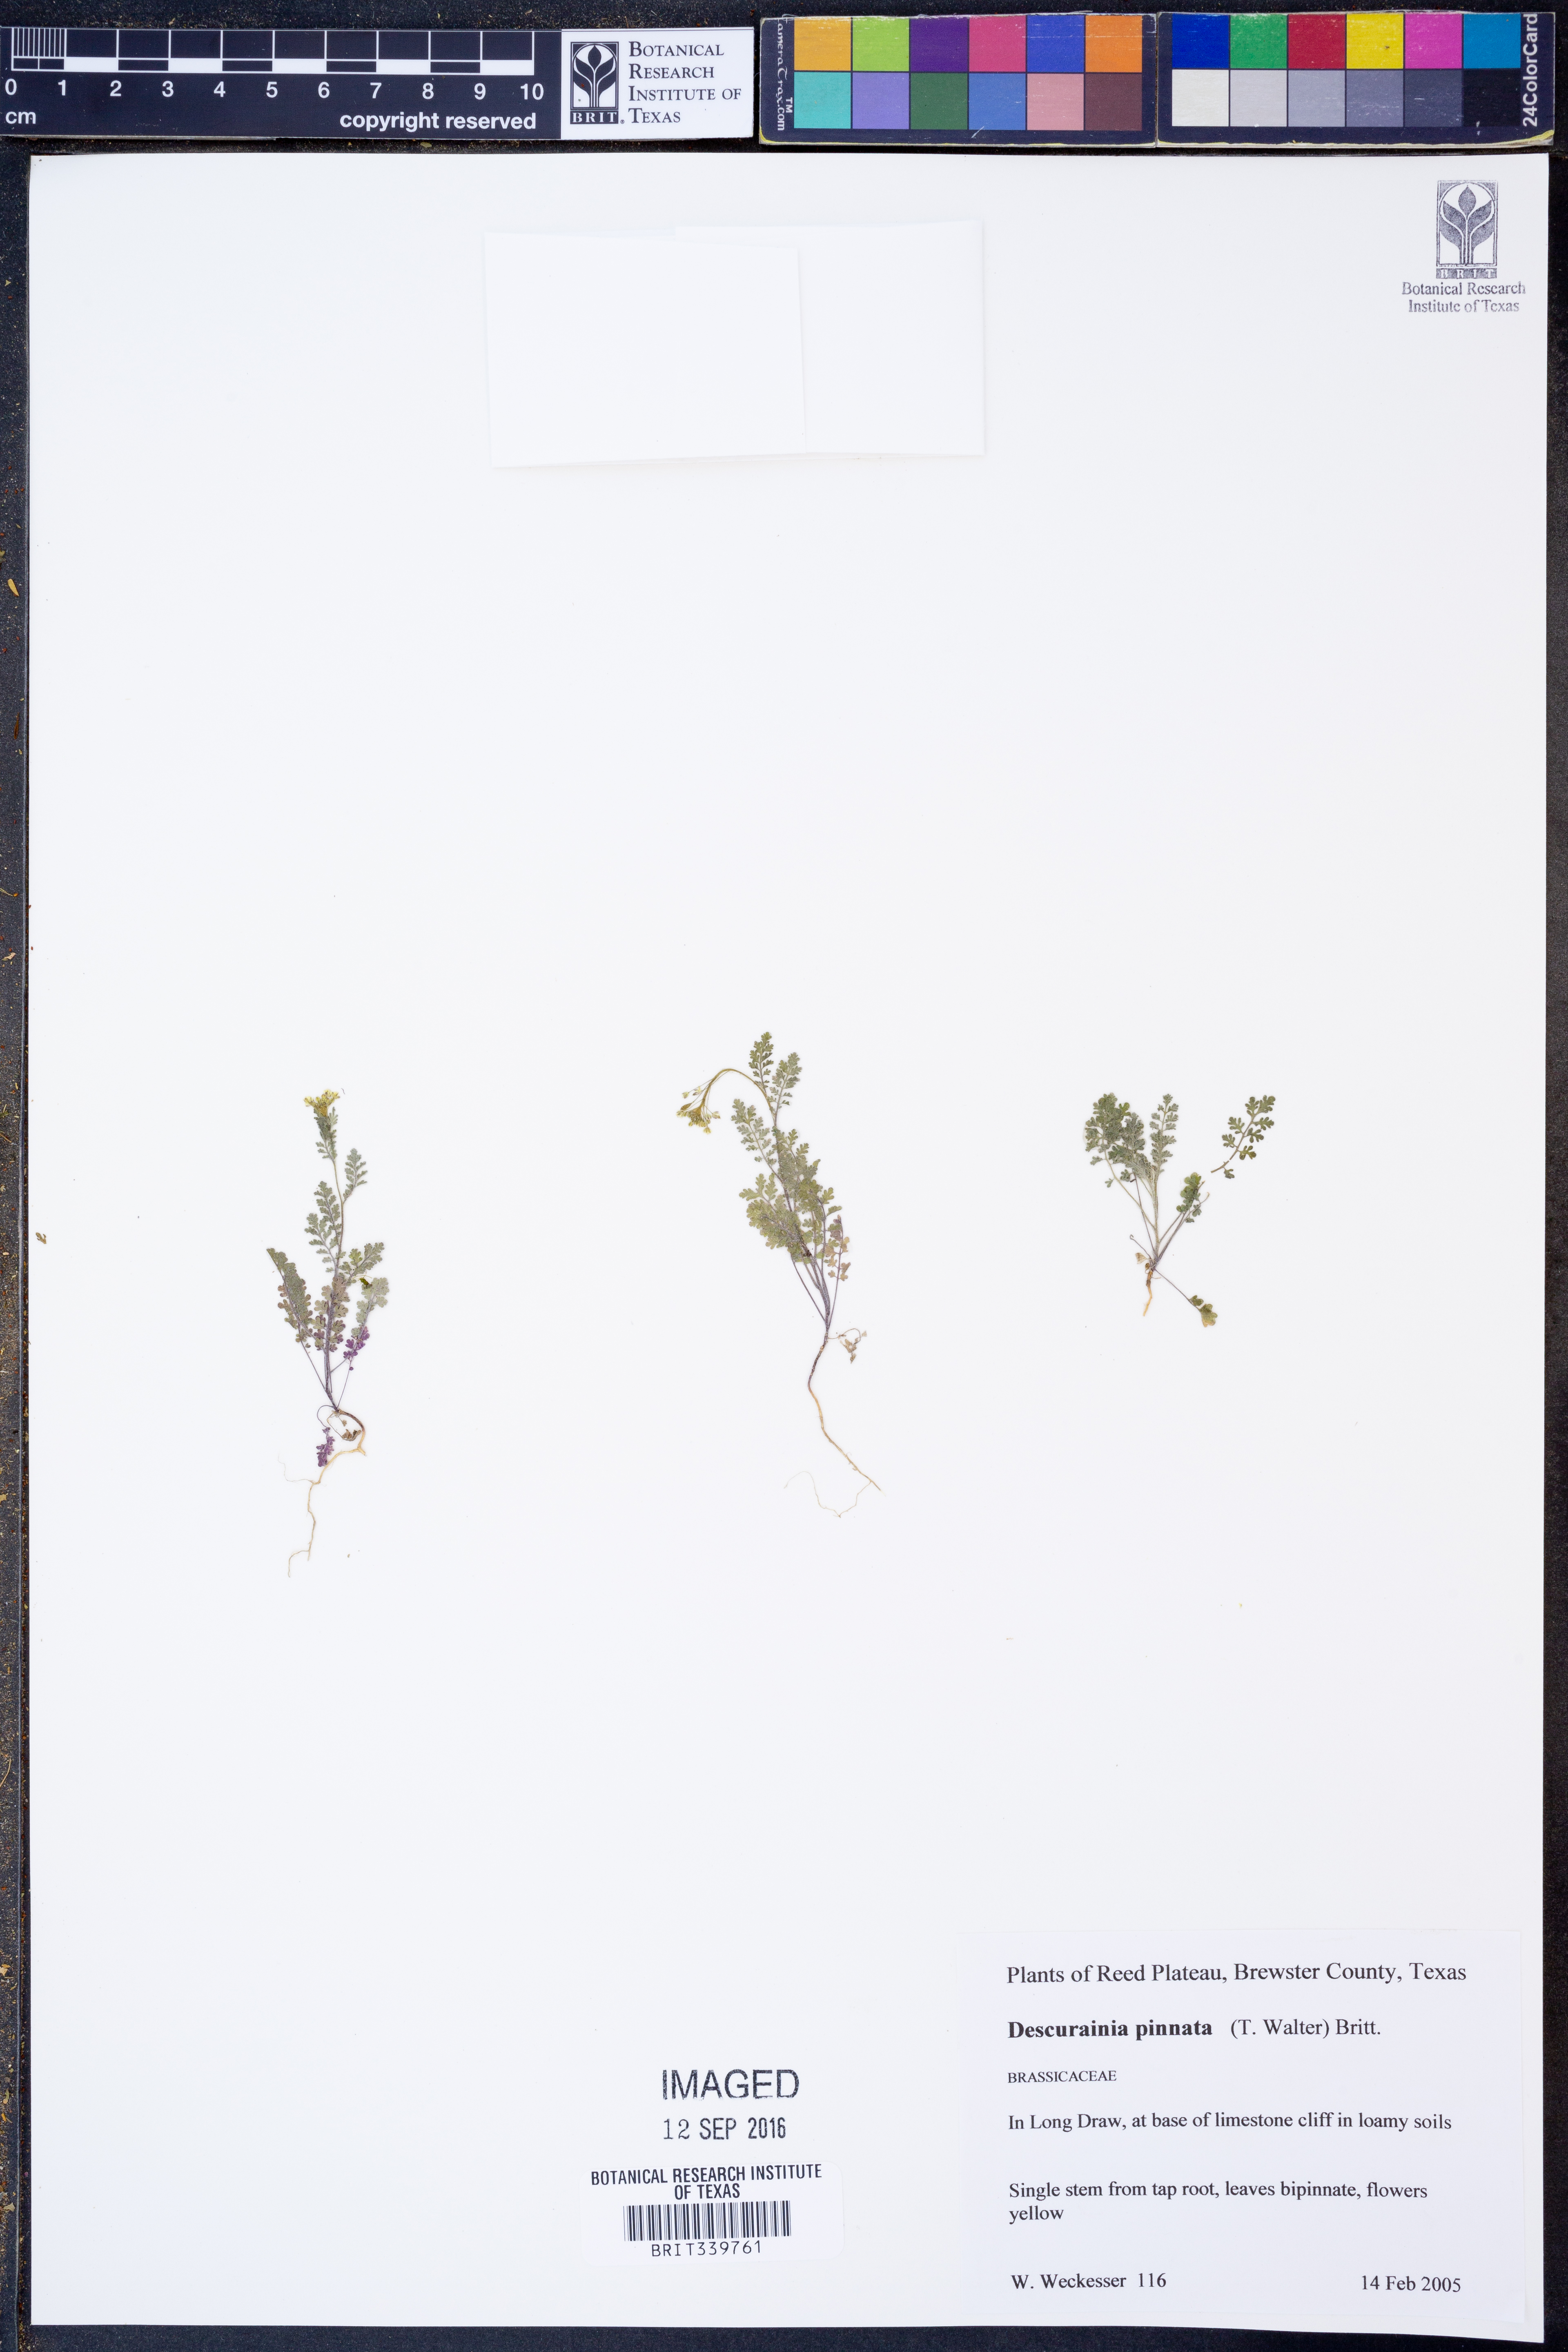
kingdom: Plantae
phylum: Tracheophyta
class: Magnoliopsida
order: Brassicales
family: Brassicaceae
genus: Descurainia
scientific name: Descurainia pinnata
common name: Western tansy mustard
